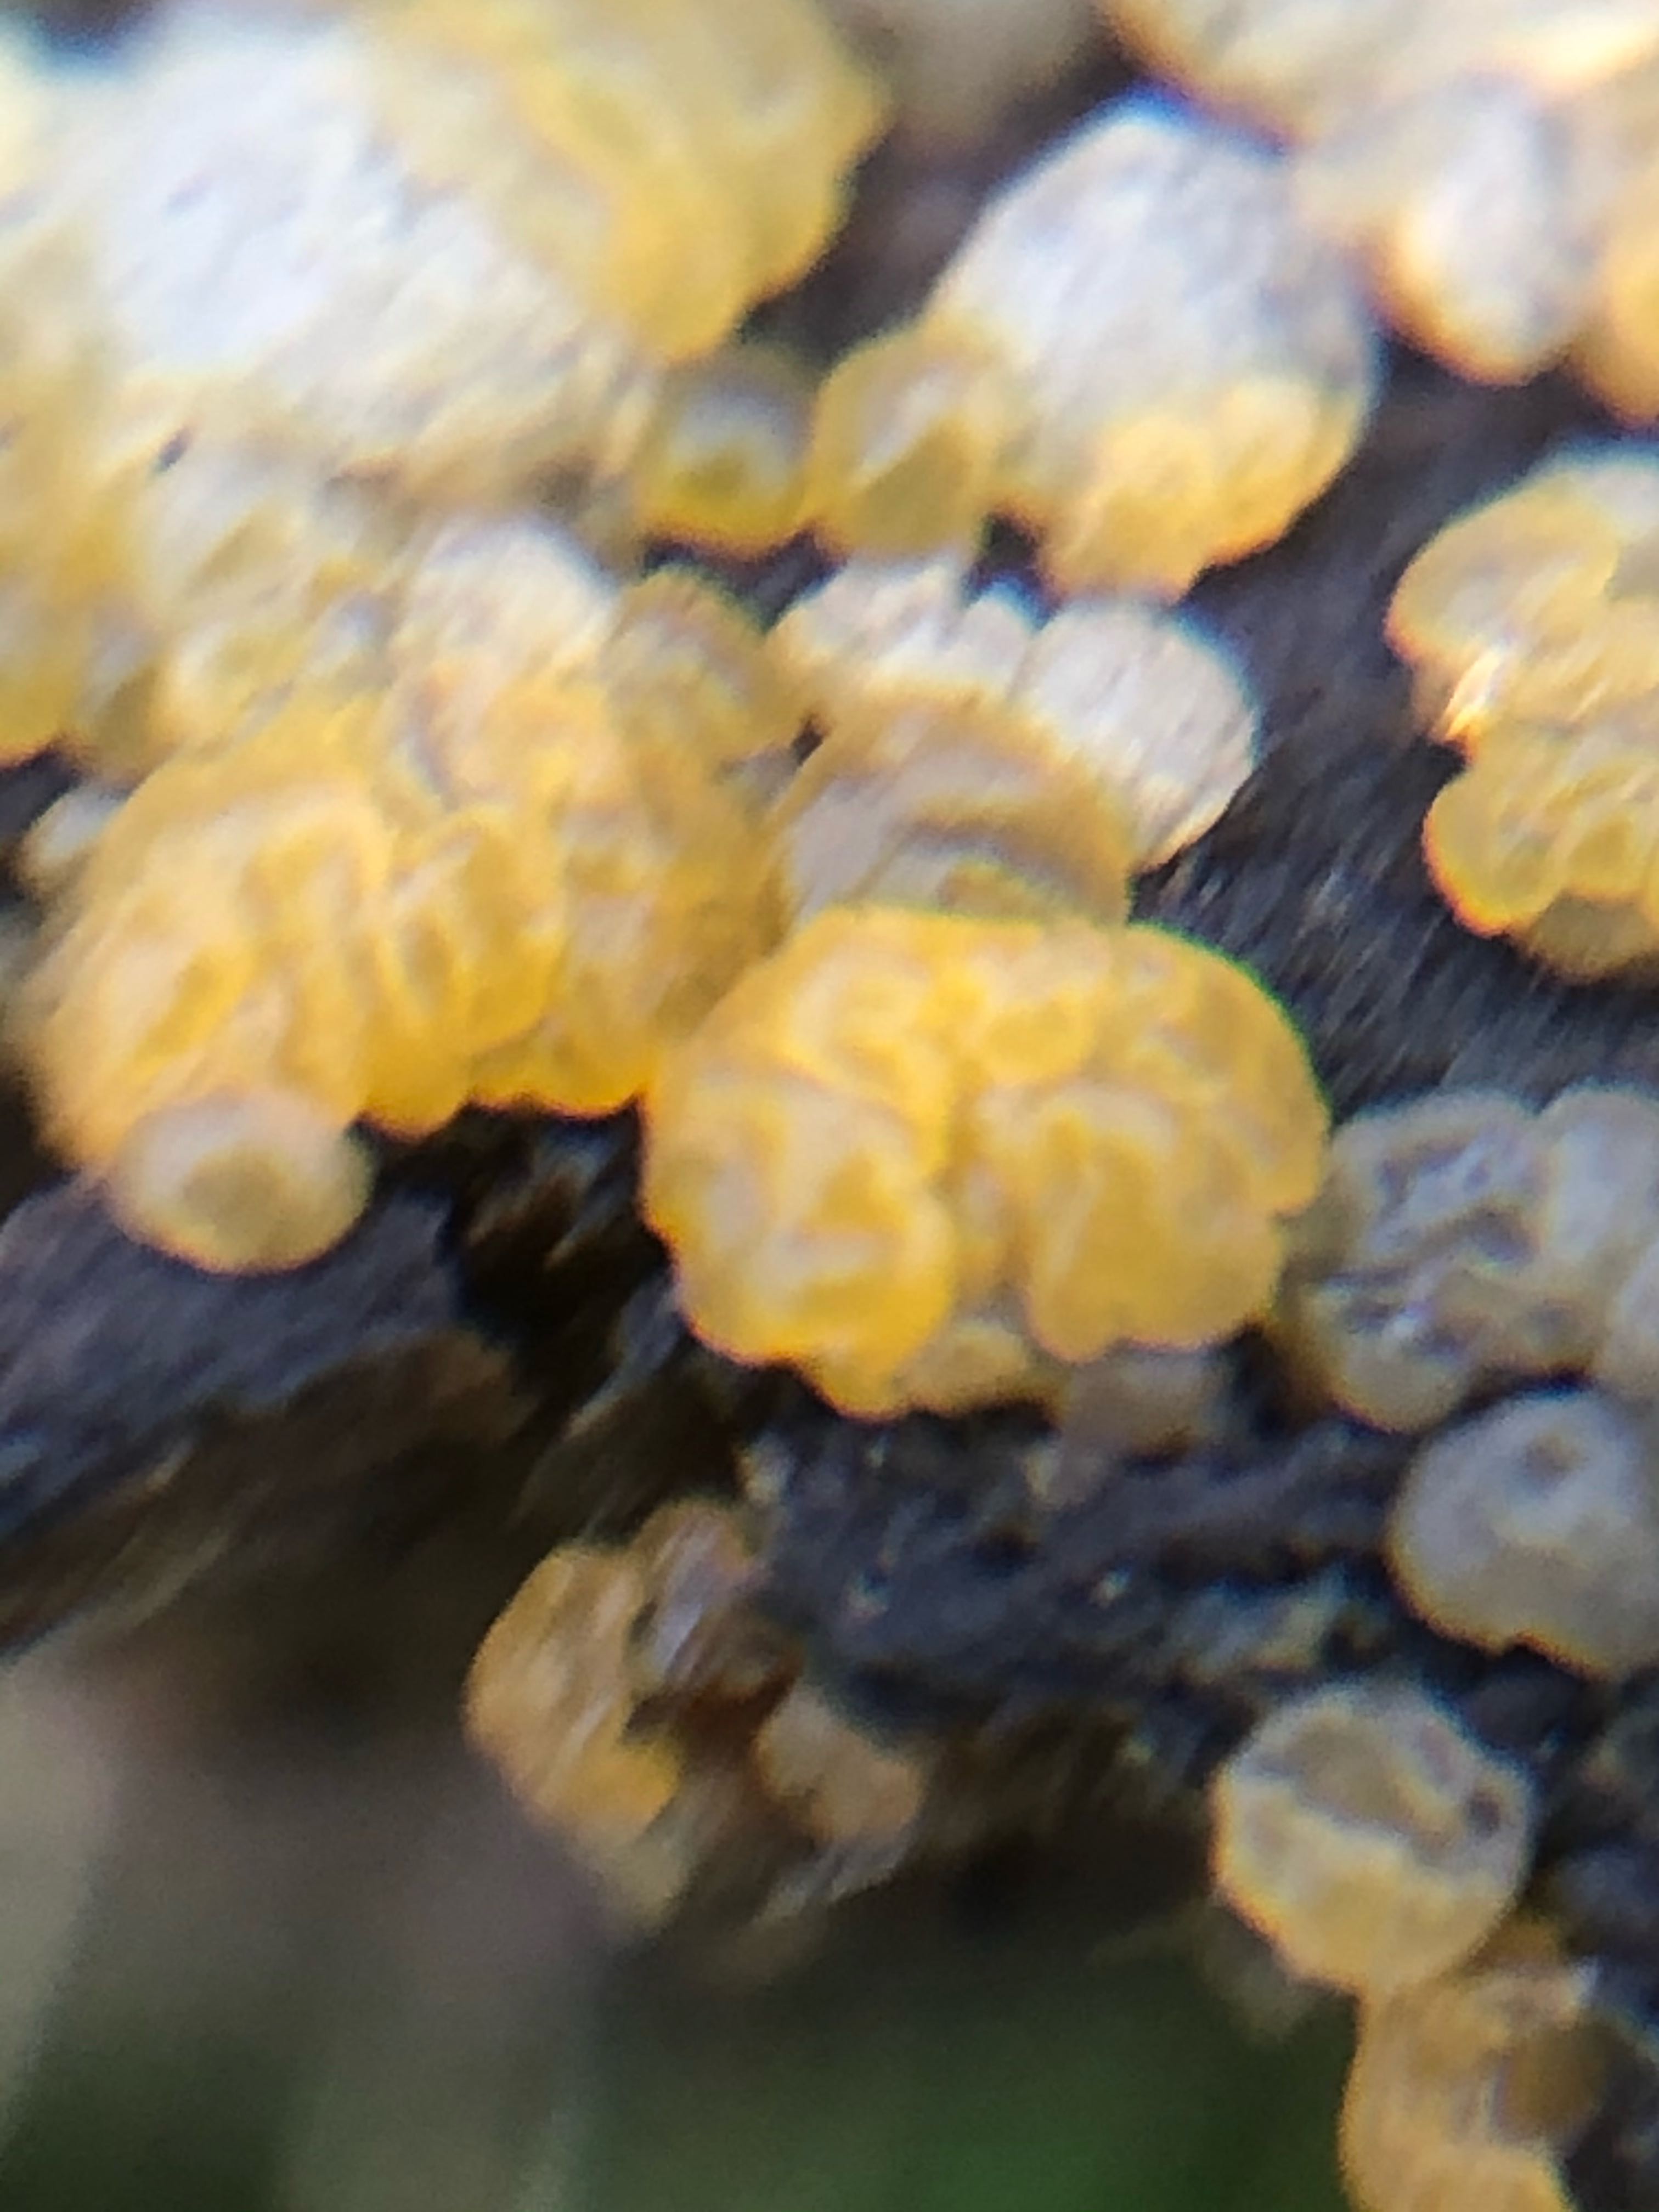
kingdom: Fungi
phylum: Basidiomycota
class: Dacrymycetes
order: Dacrymycetales
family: Dacrymycetaceae
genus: Dacrymyces
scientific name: Dacrymyces lacrymalis
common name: rynket tåresvamp
